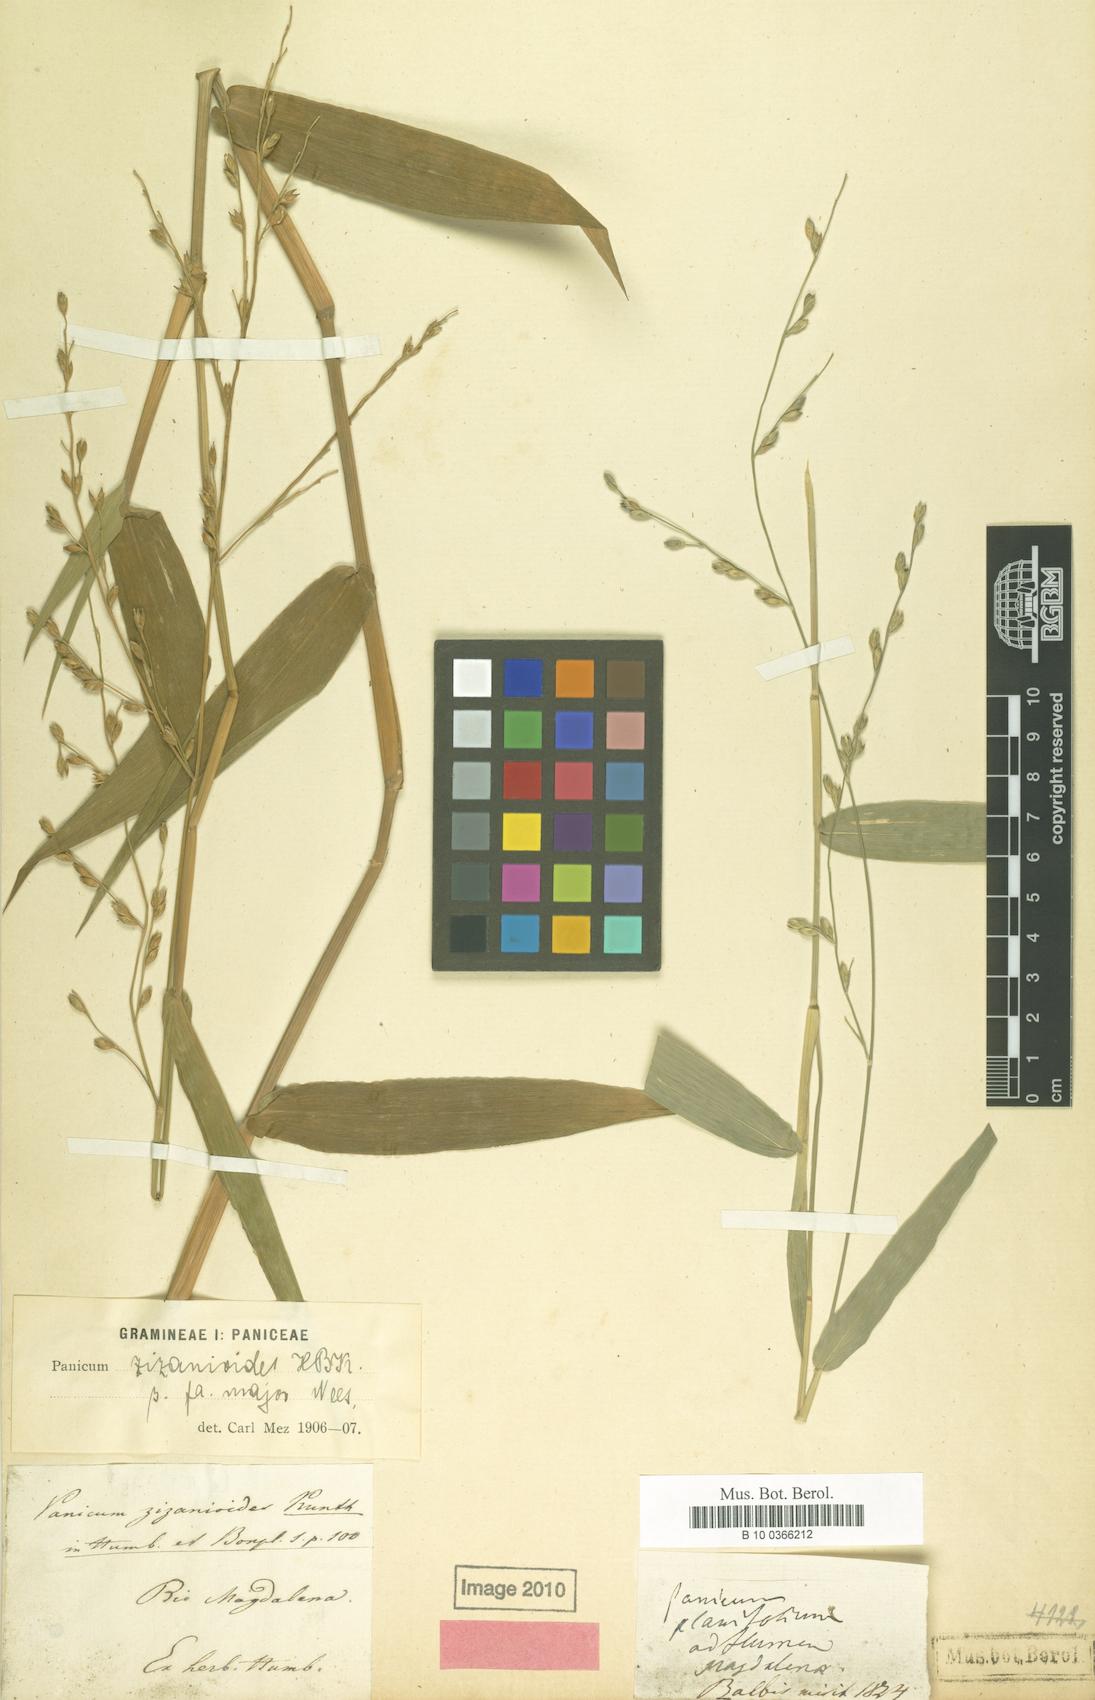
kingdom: Plantae
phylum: Tracheophyta
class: Liliopsida
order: Poales
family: Poaceae
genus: Acroceras
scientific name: Acroceras zizanioides
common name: Oat grass
